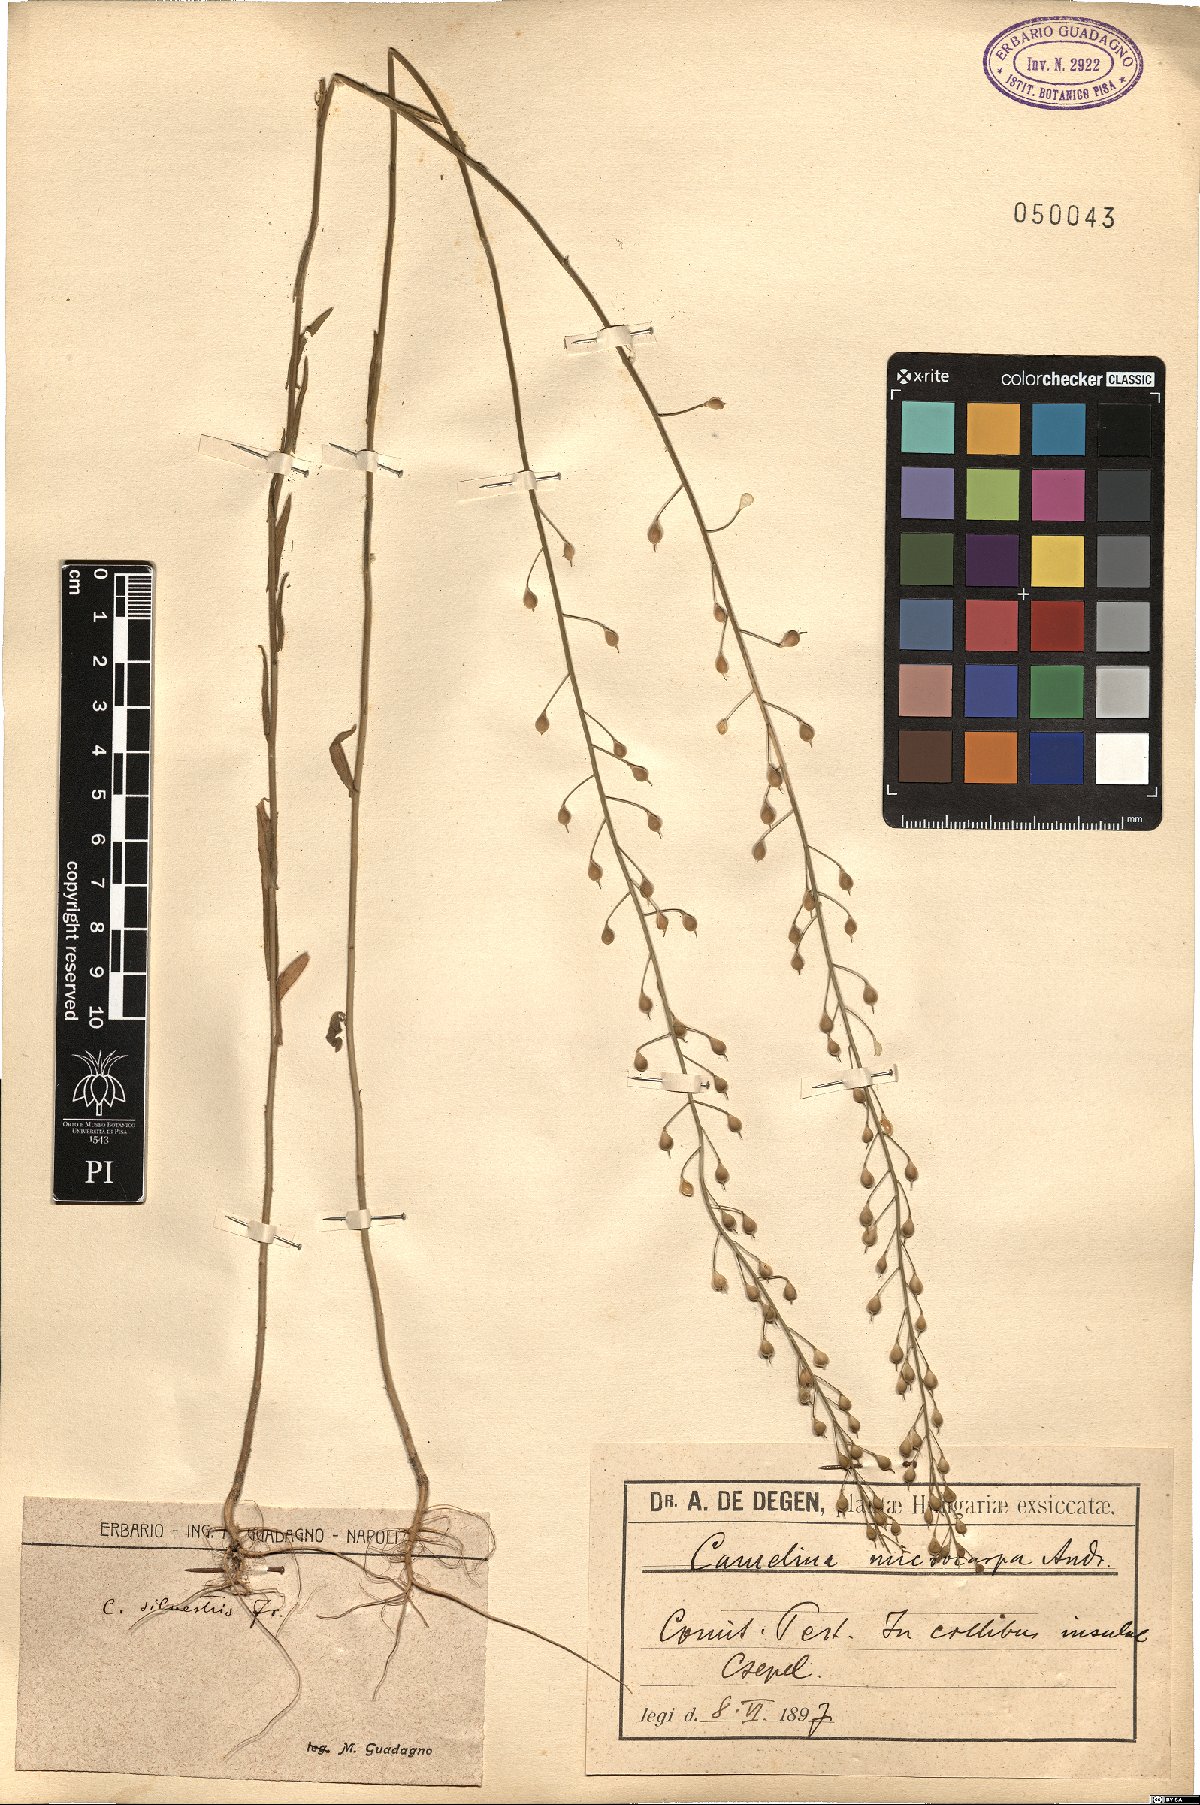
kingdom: Plantae
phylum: Tracheophyta
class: Magnoliopsida
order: Brassicales
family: Brassicaceae
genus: Camelina
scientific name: Camelina microcarpa
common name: Lesser gold-of-pleasure
